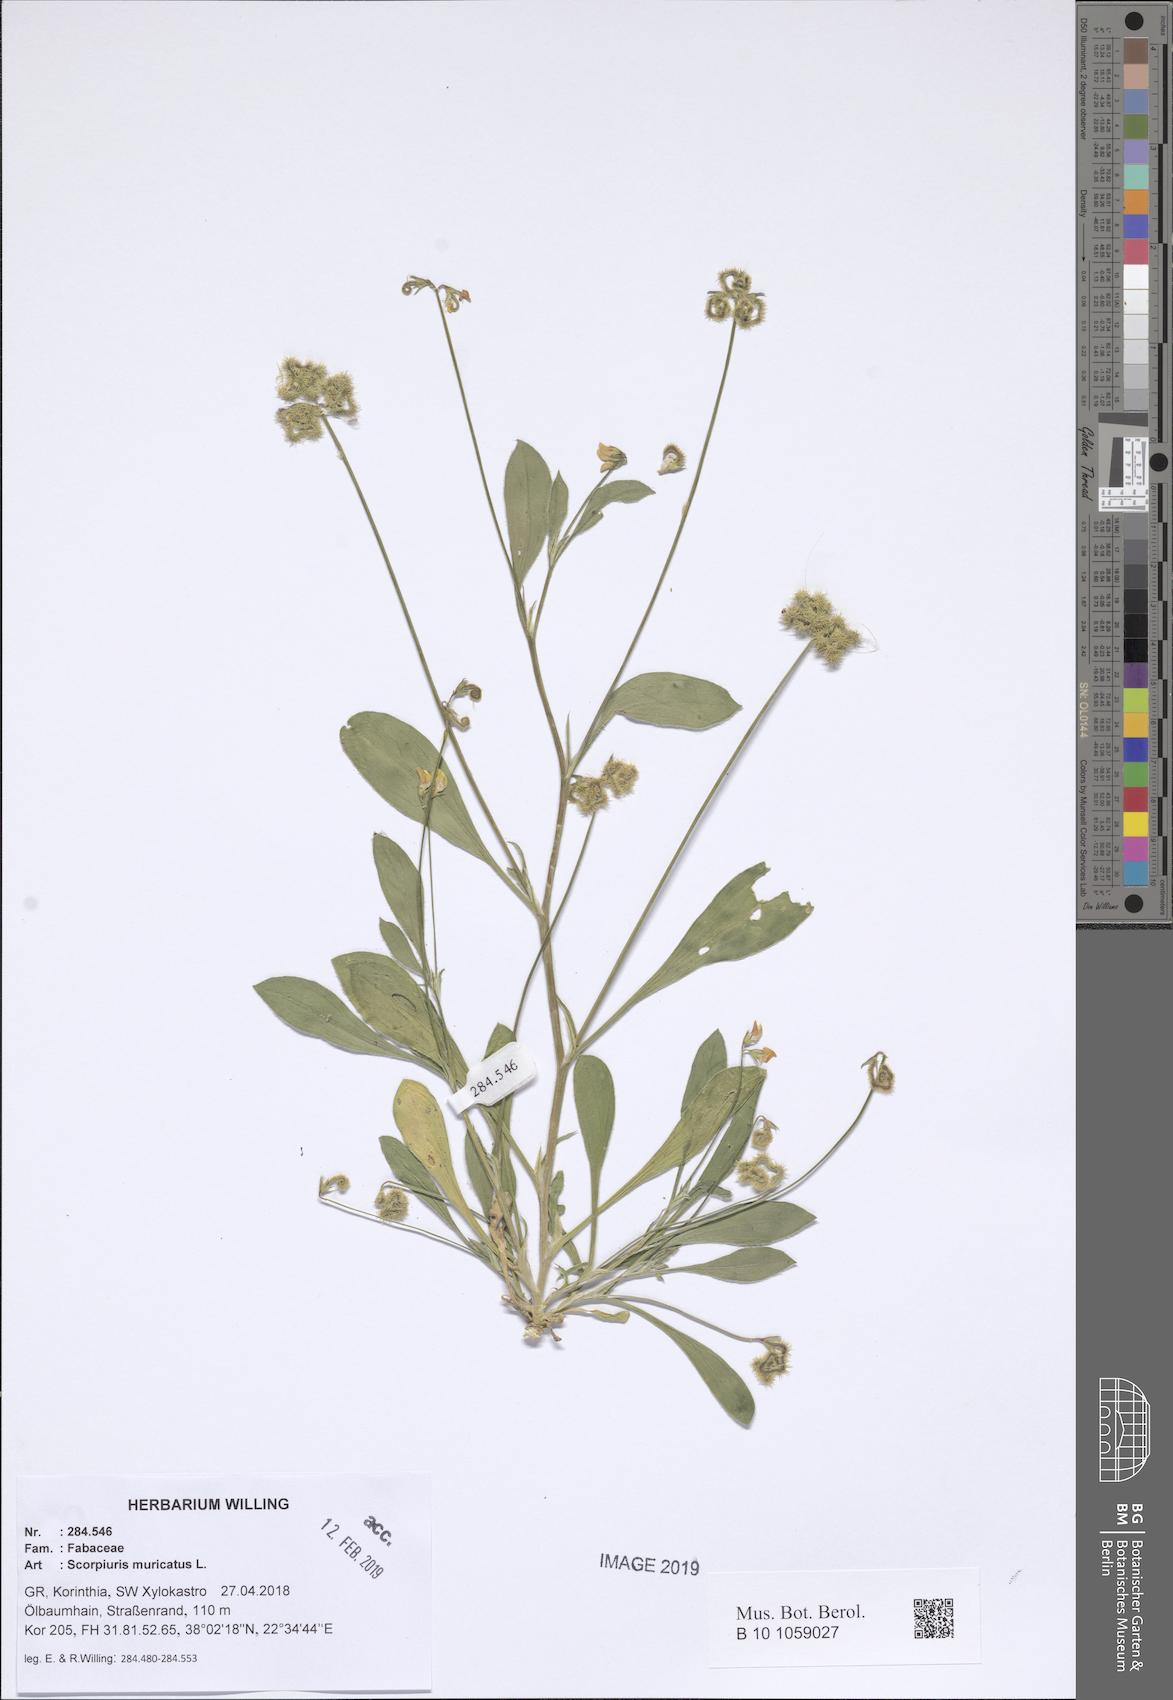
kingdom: Plantae
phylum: Tracheophyta
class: Magnoliopsida
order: Fabales
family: Fabaceae
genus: Scorpiurus
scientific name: Scorpiurus muricatus
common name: Caterpillar-plant
